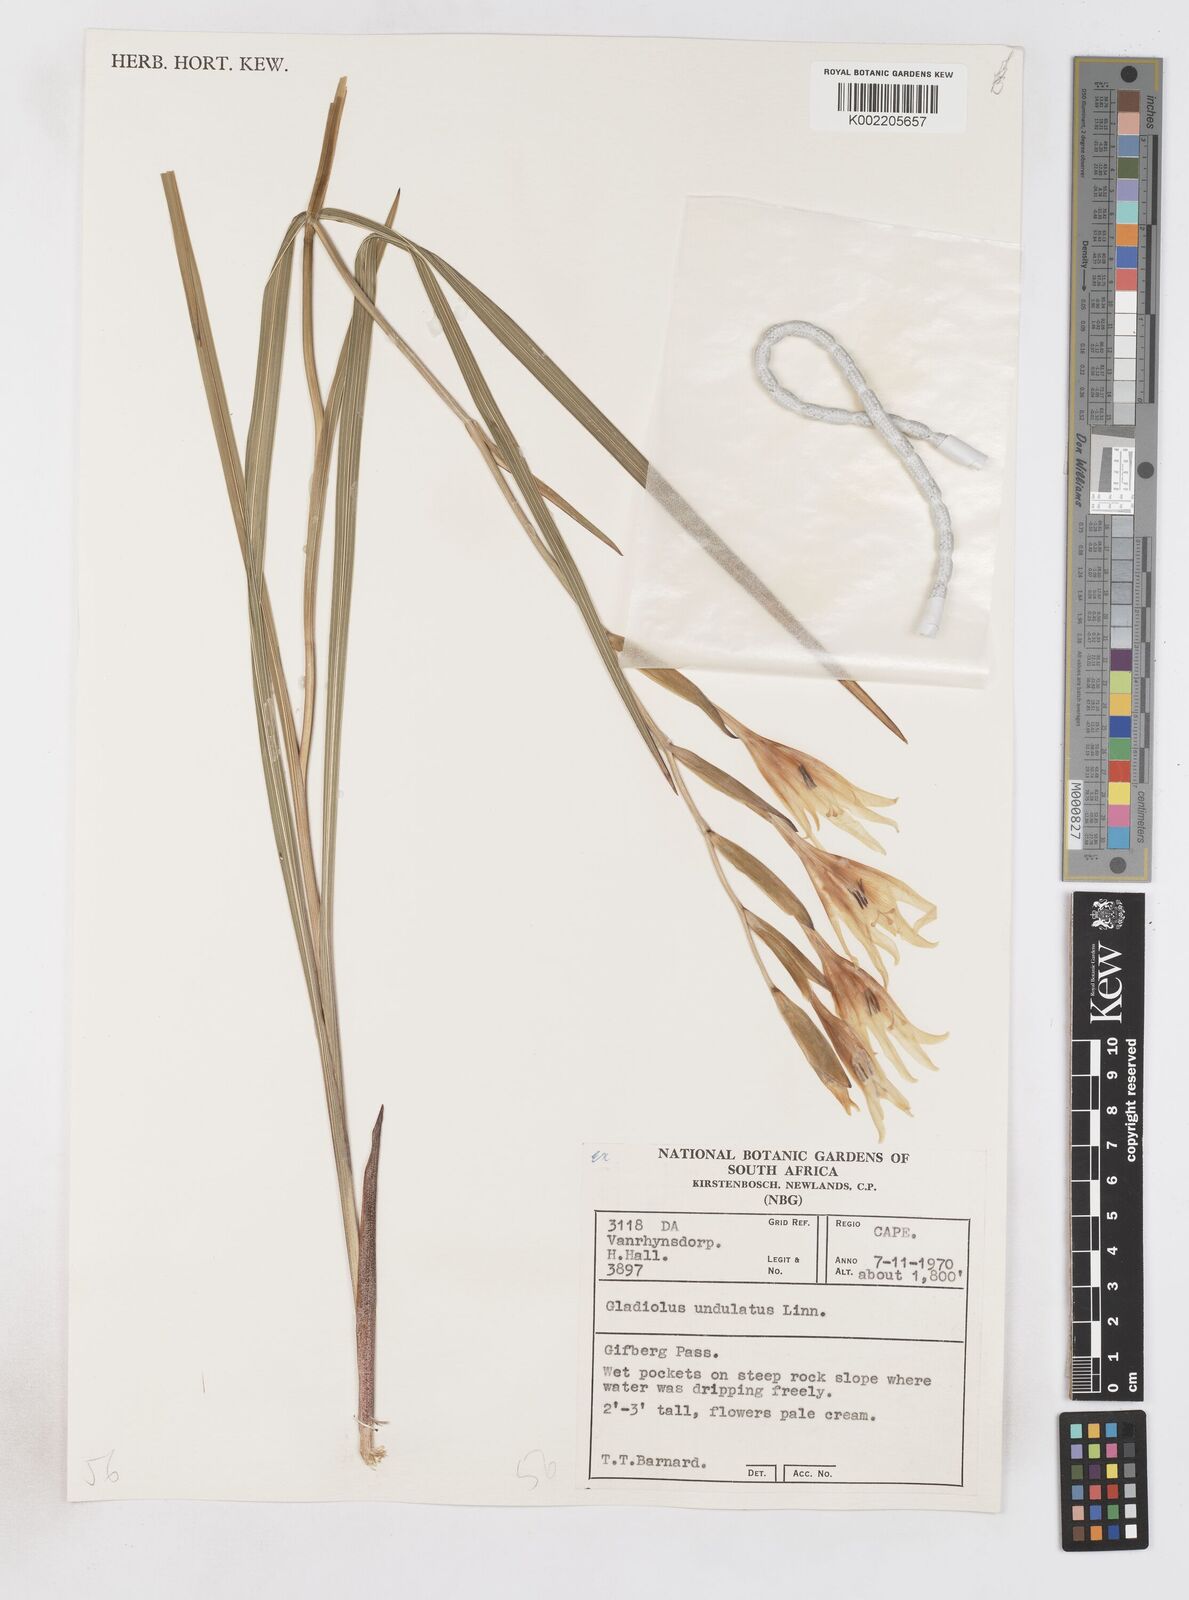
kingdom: Plantae
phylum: Tracheophyta
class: Liliopsida
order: Asparagales
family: Iridaceae
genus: Gladiolus
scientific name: Gladiolus undulatus
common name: Large painted-lady
